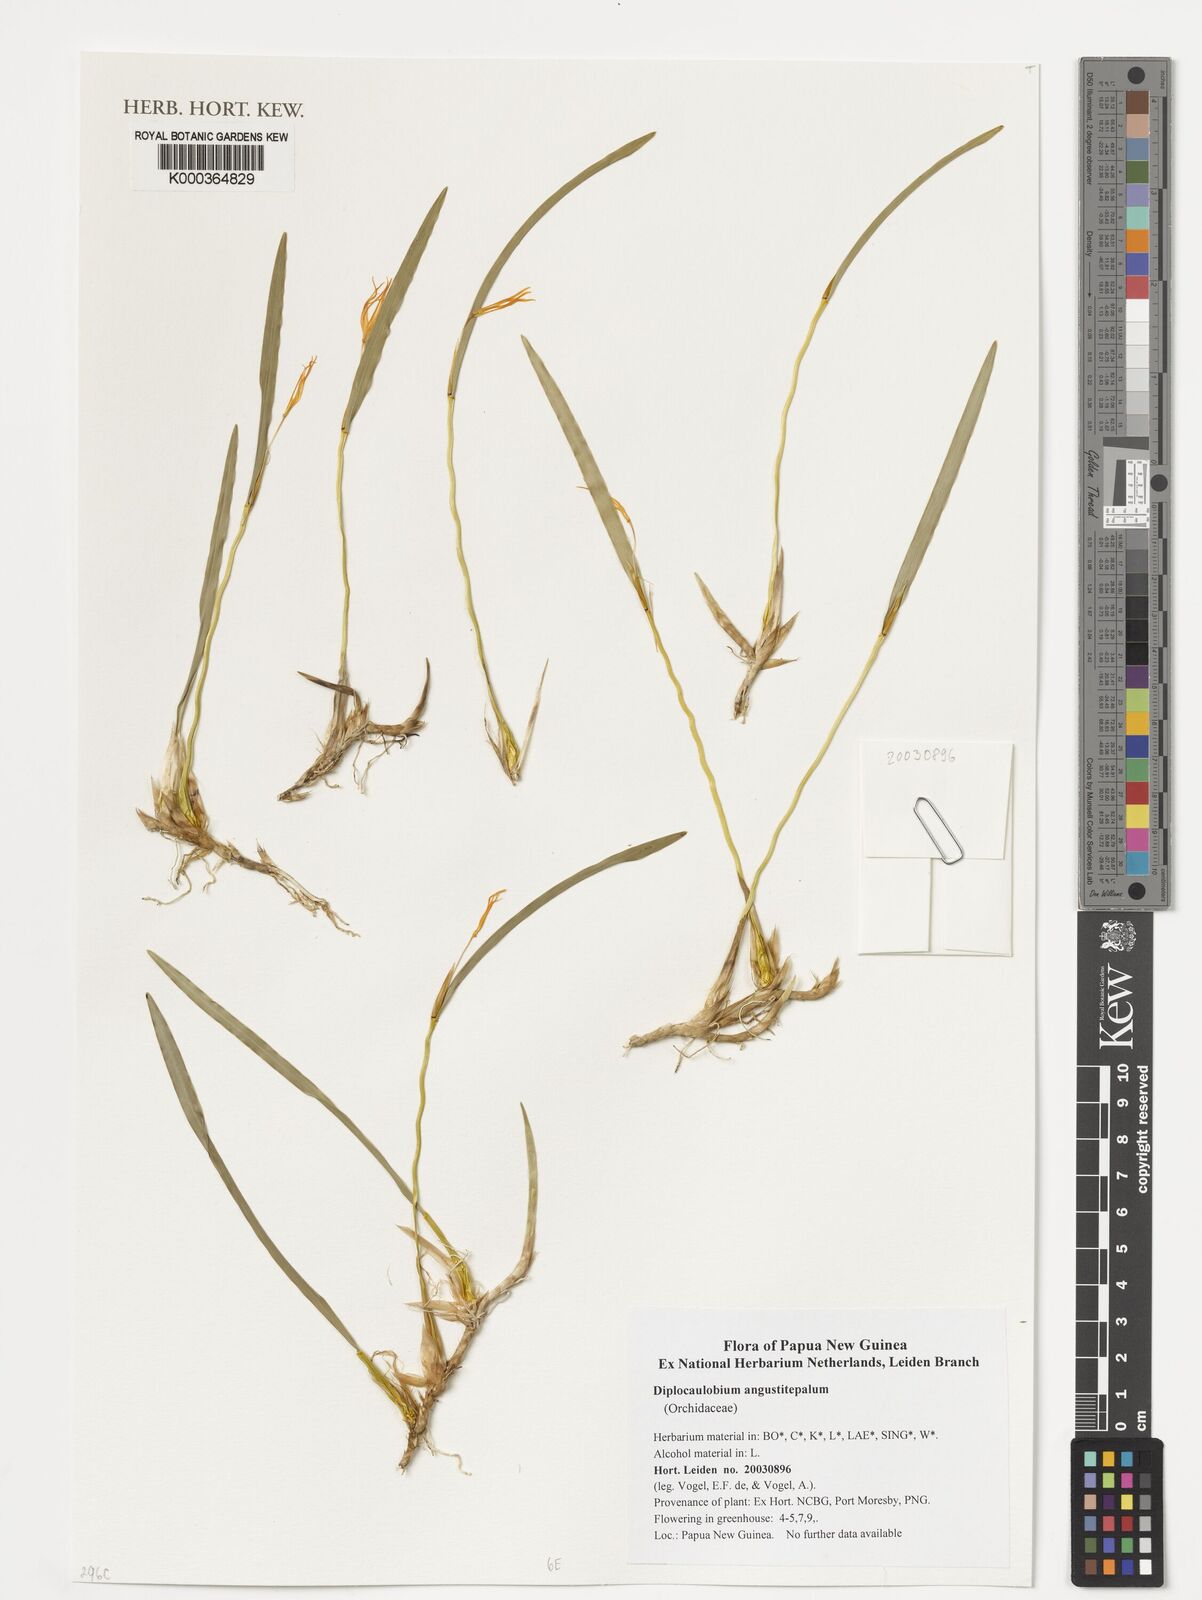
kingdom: Plantae
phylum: Tracheophyta
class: Liliopsida
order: Asparagales
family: Orchidaceae
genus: Dendrobium
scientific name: Dendrobium angustitepalum
